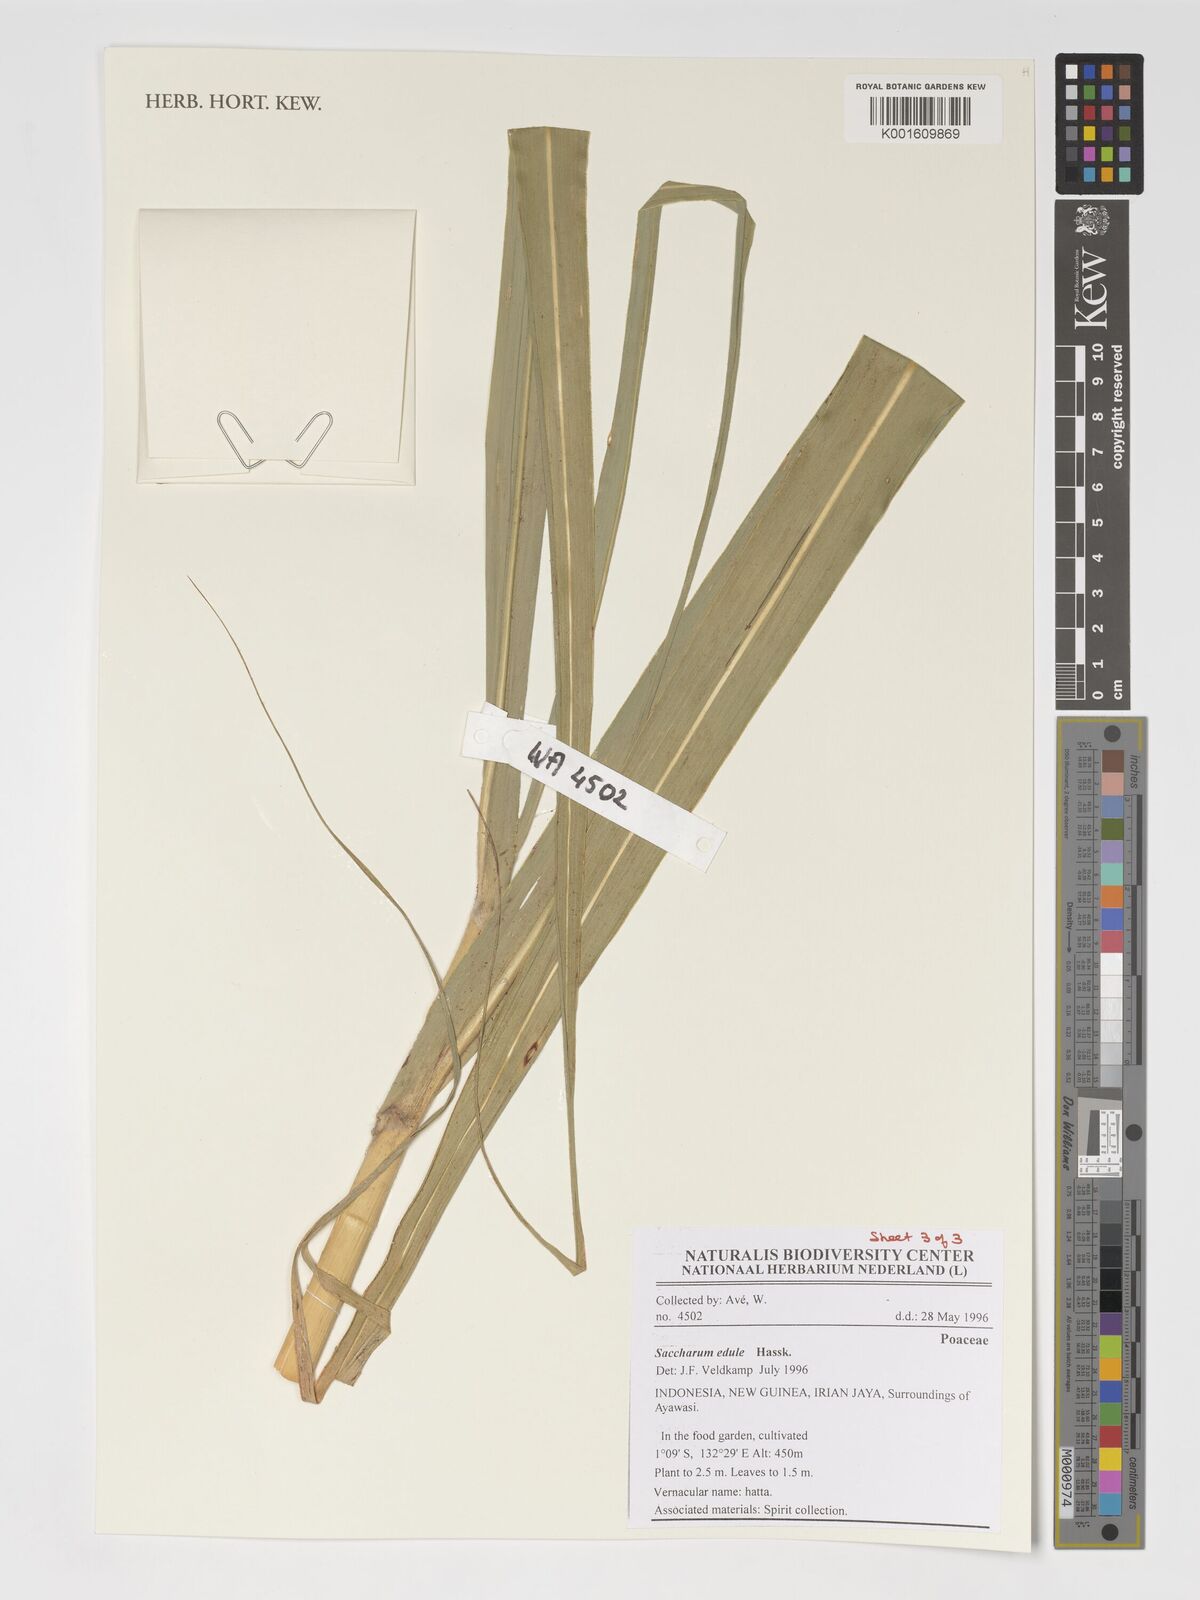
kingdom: Plantae
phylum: Tracheophyta
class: Liliopsida
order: Poales
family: Poaceae
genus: Saccharum
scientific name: Saccharum edule
